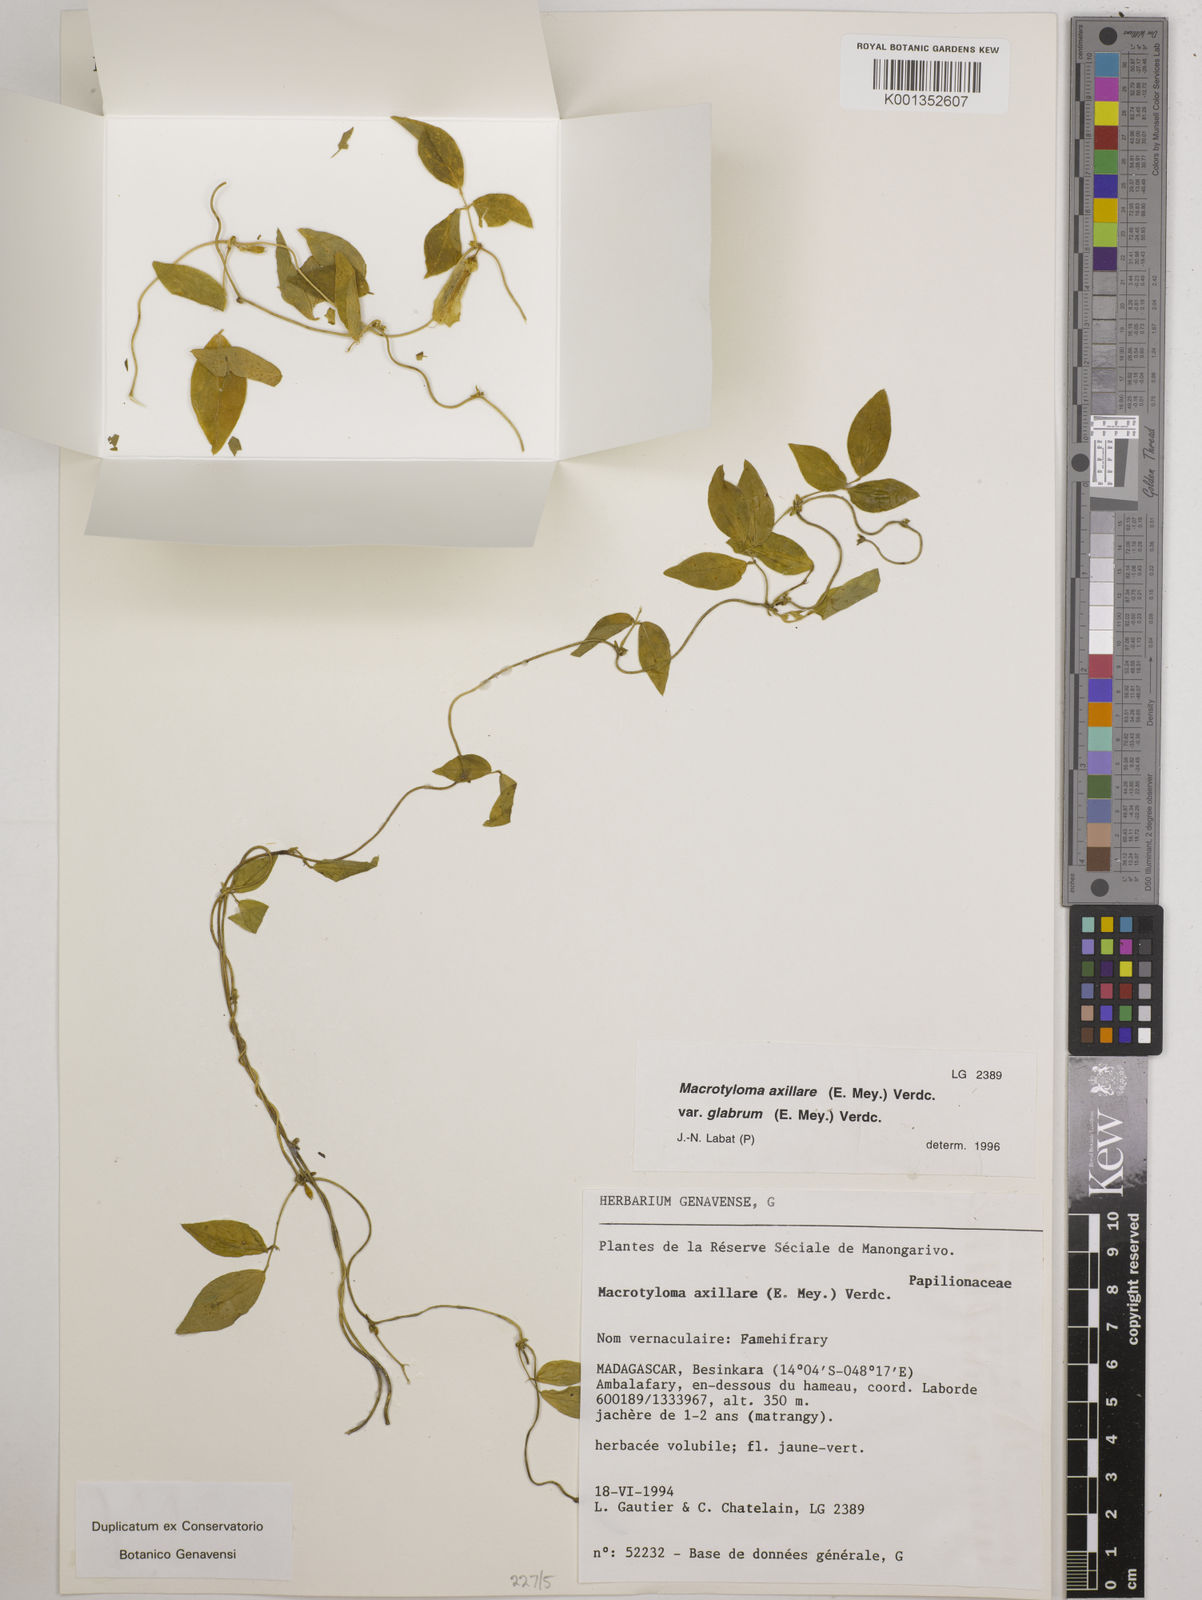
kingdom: Plantae
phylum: Tracheophyta
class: Magnoliopsida
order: Fabales
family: Fabaceae
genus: Macrotyloma
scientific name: Macrotyloma
